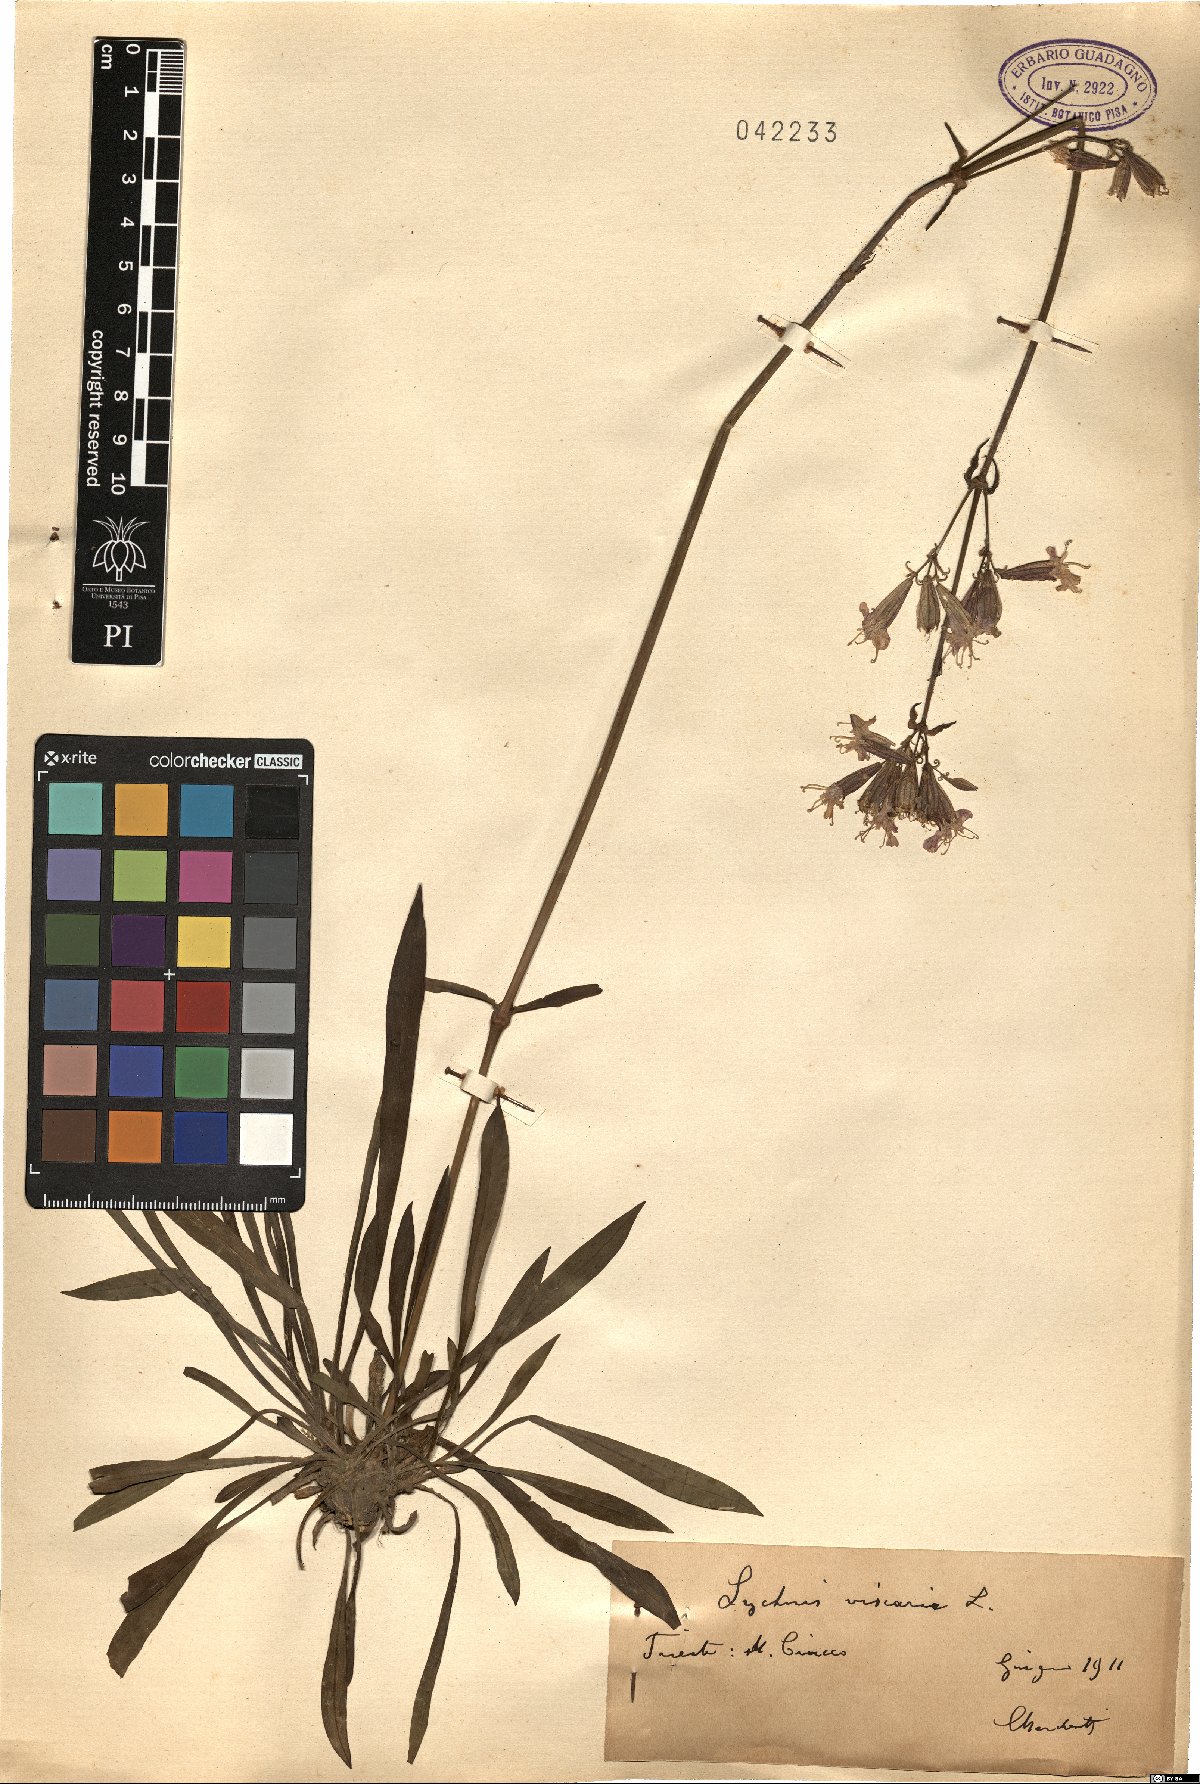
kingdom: Plantae
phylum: Tracheophyta
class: Magnoliopsida
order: Caryophyllales
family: Caryophyllaceae
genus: Viscaria
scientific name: Viscaria vulgaris
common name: Clammy campion
